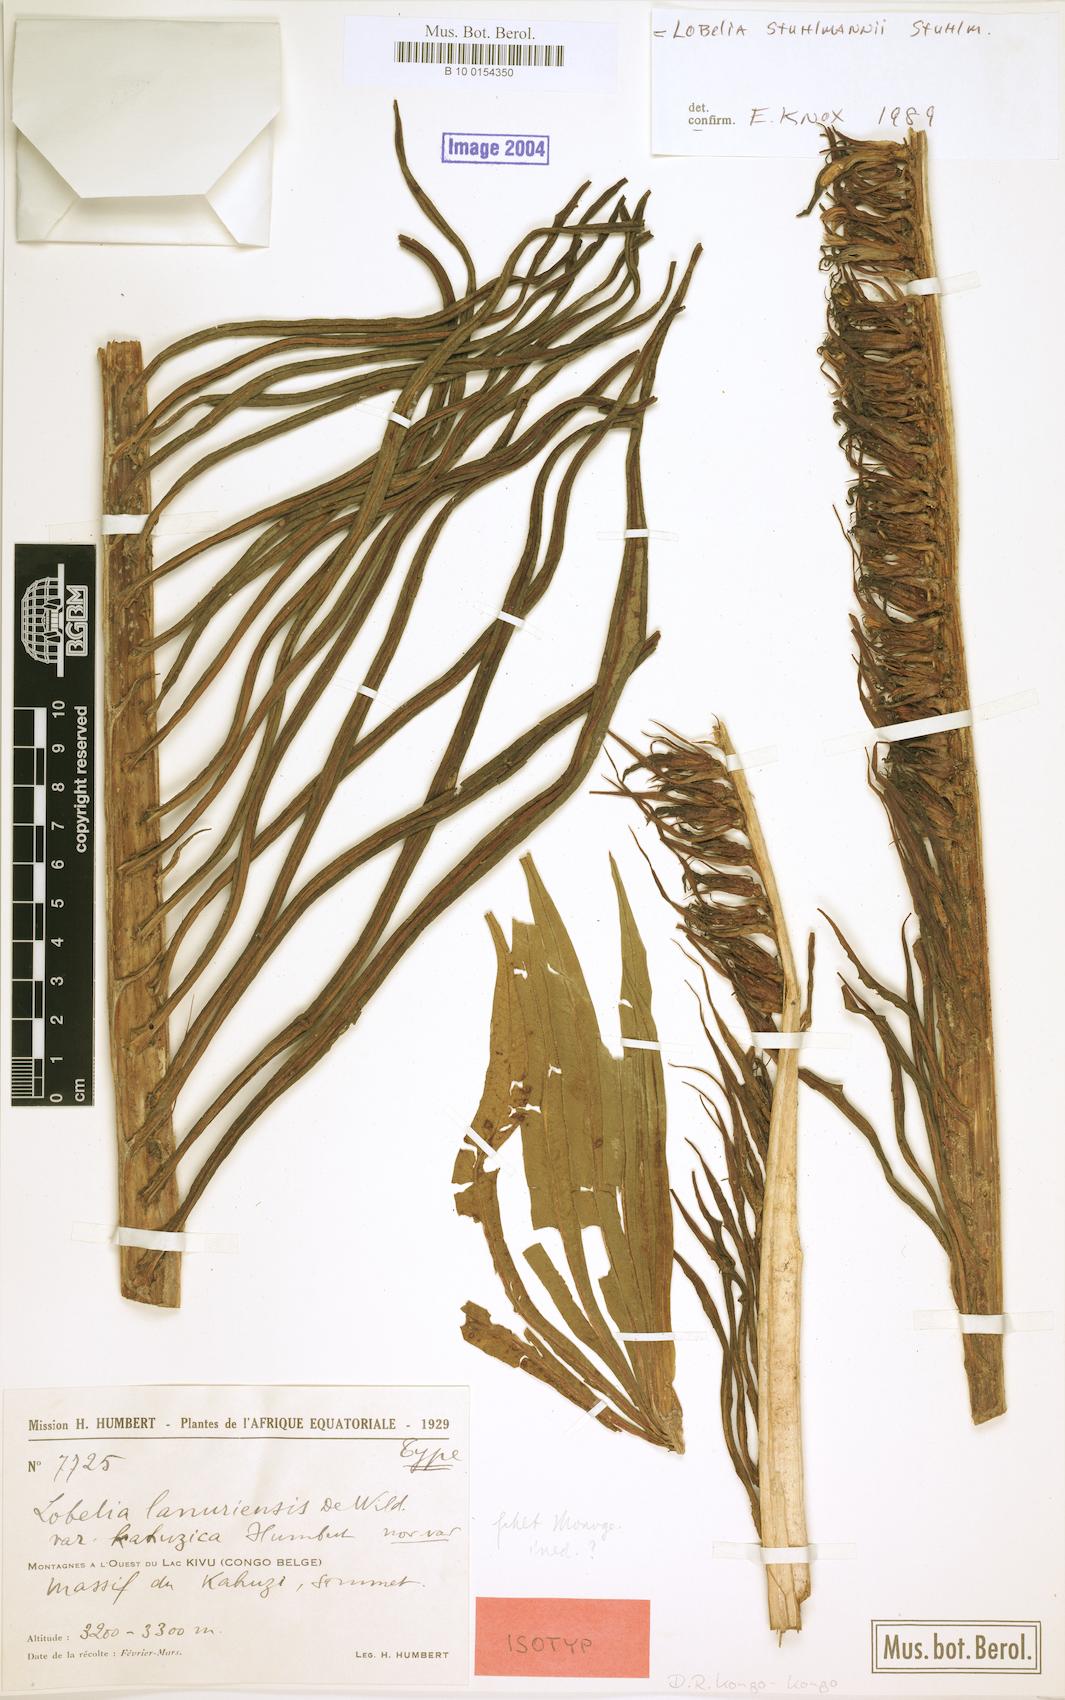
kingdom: Plantae
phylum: Tracheophyta
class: Magnoliopsida
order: Asterales
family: Campanulaceae
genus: Lobelia
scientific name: Lobelia stuhlmannii
